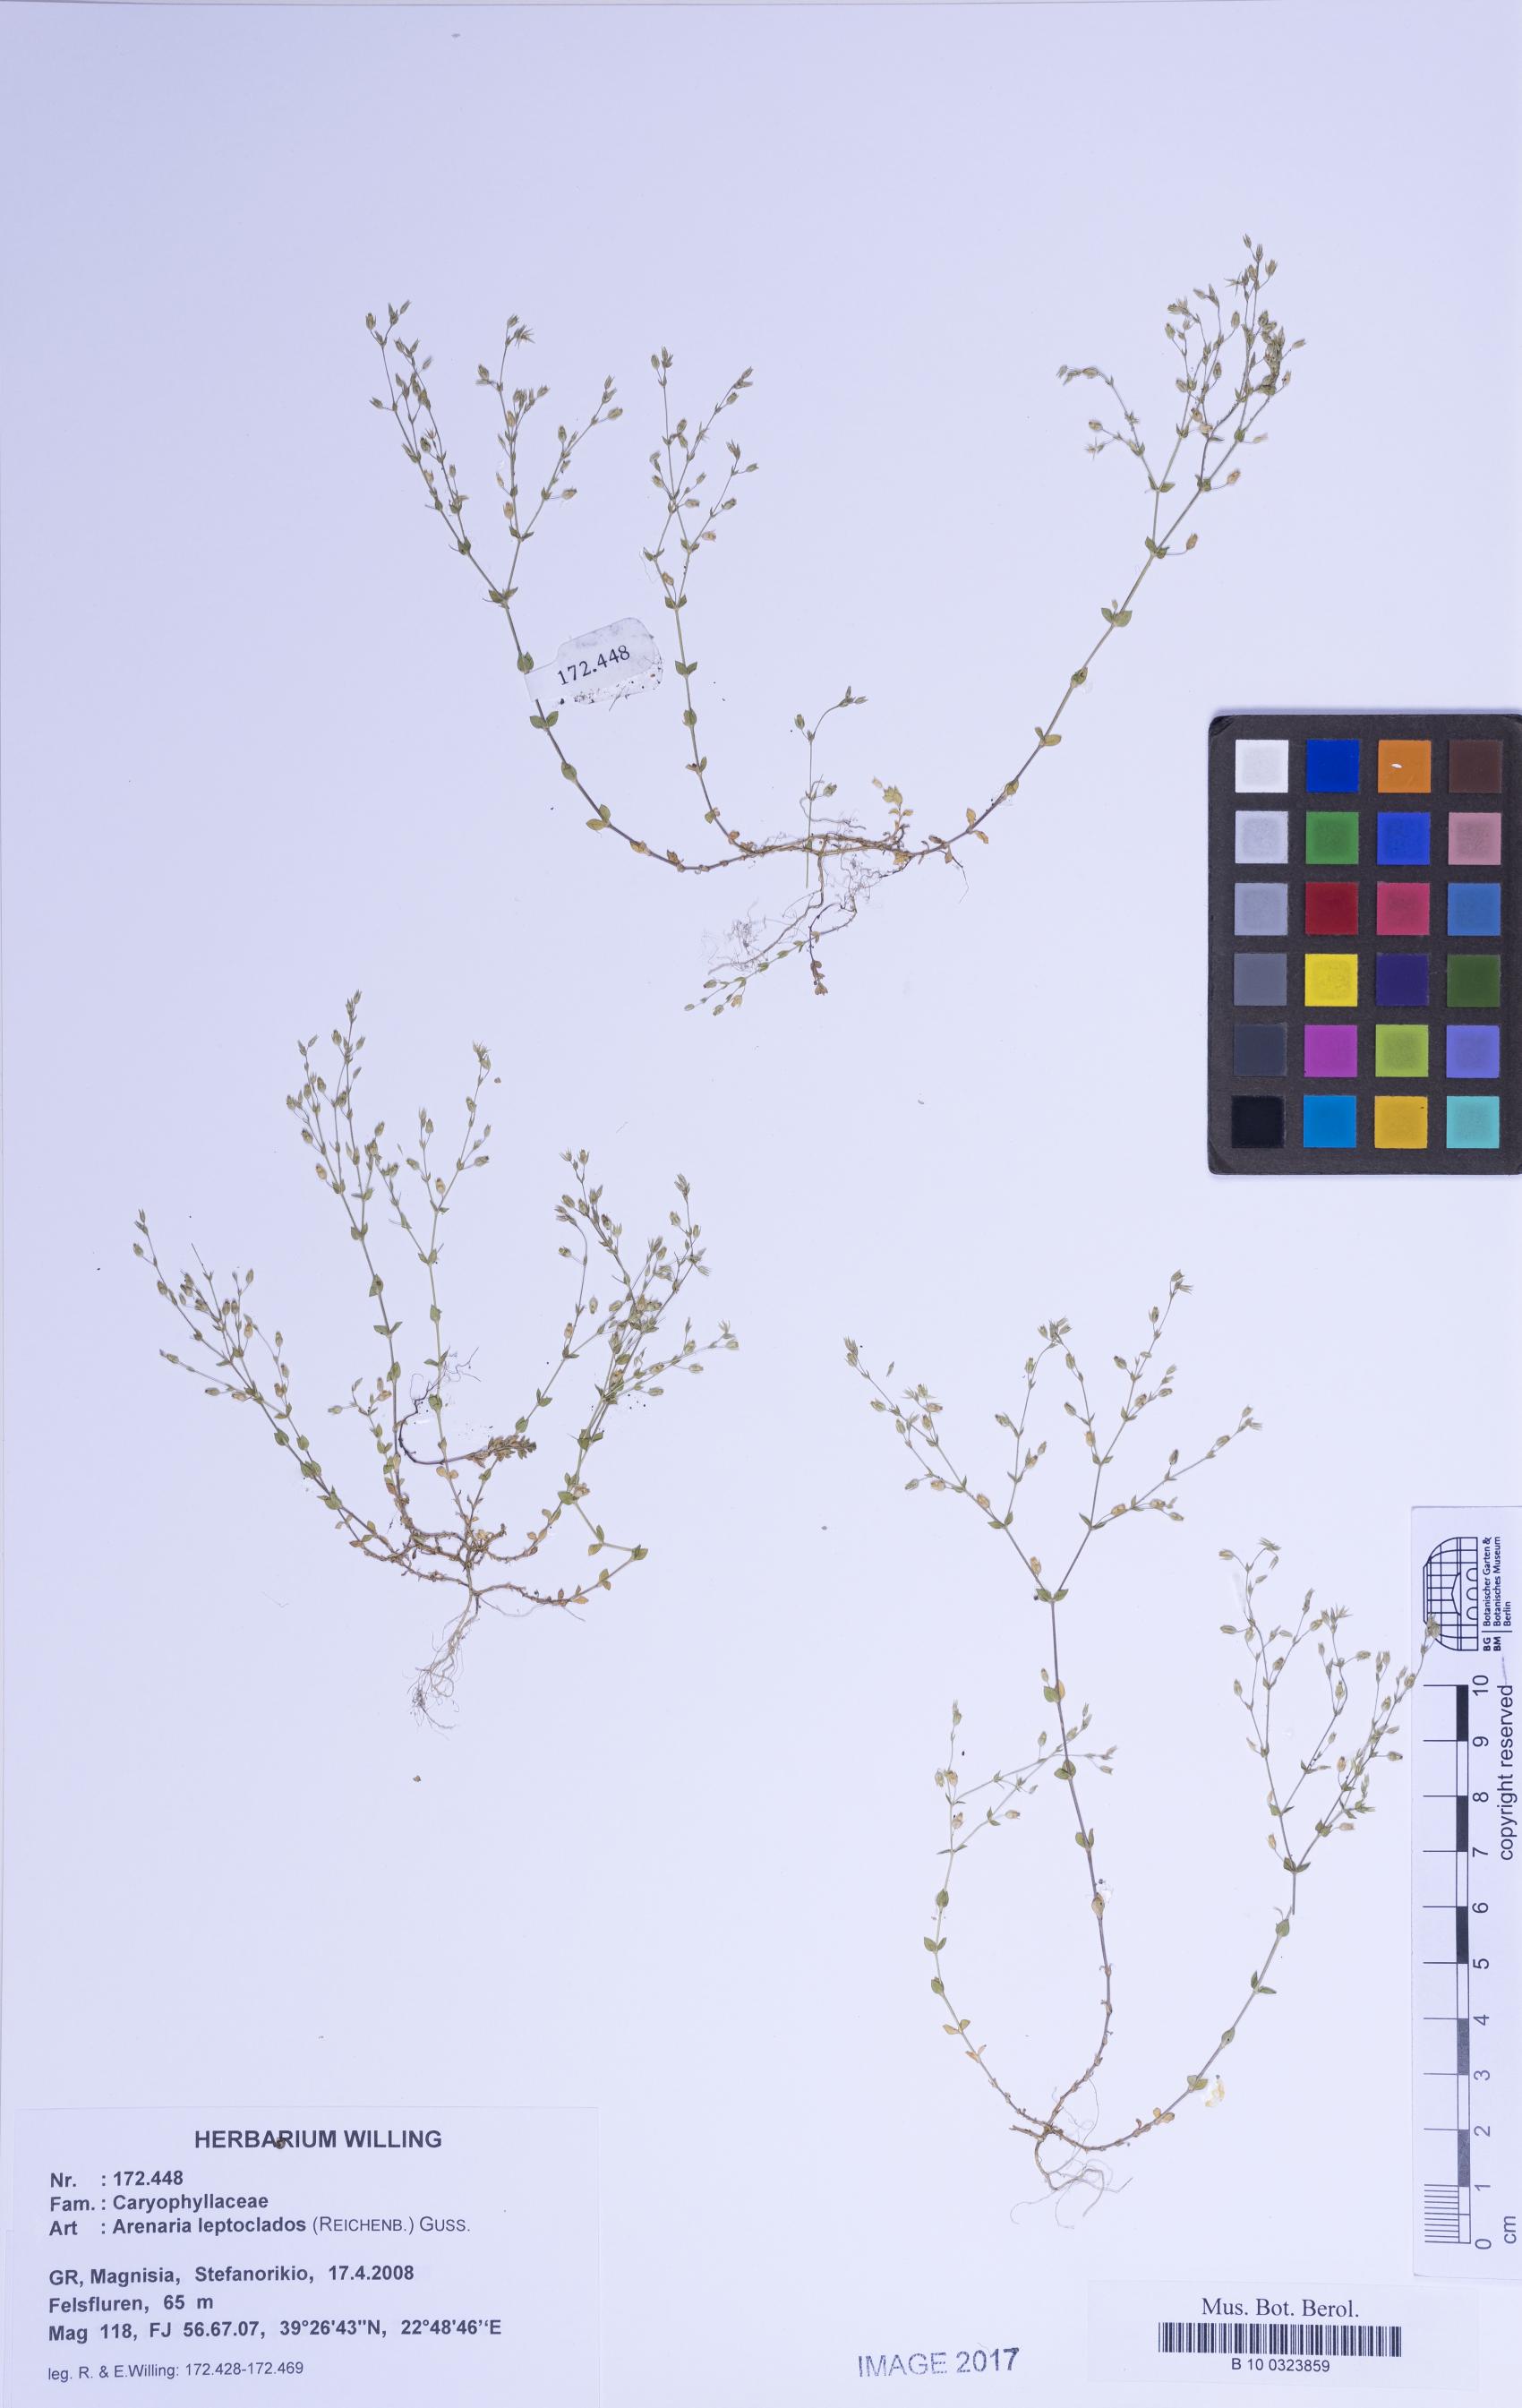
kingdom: Plantae
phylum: Tracheophyta
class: Magnoliopsida
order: Caryophyllales
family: Caryophyllaceae
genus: Arenaria
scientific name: Arenaria leptoclados
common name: Thyme-leaved sandwort
